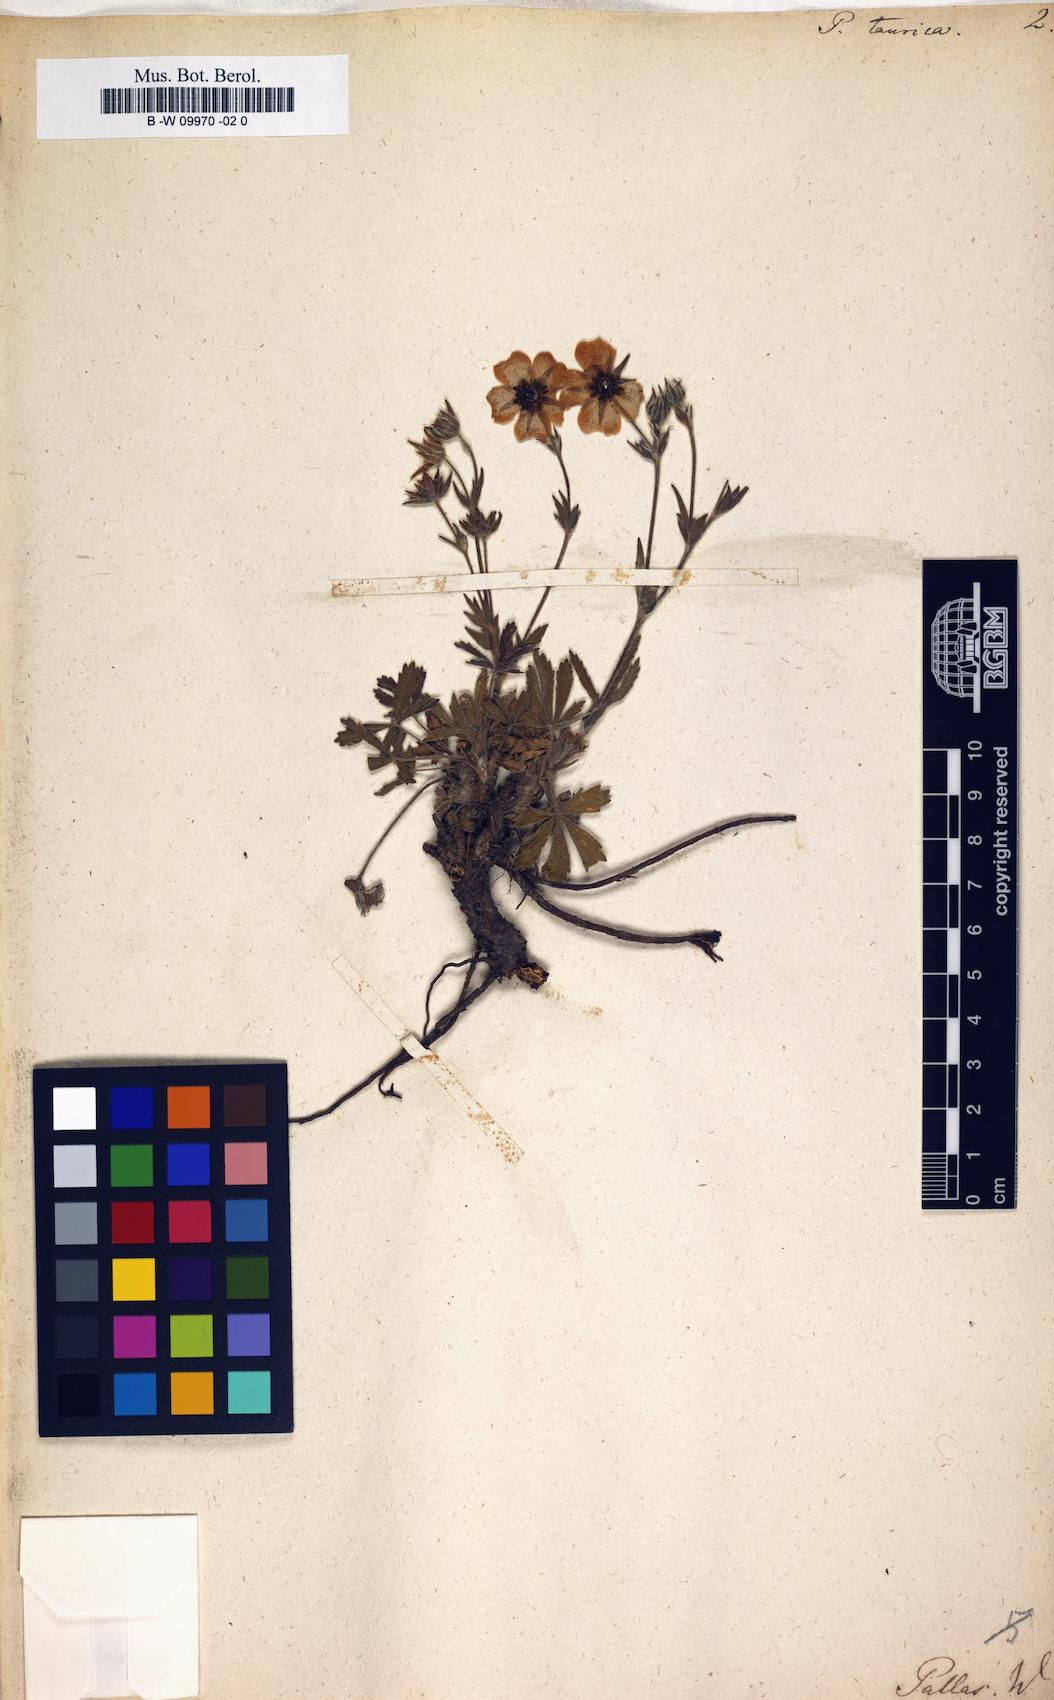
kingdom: Plantae
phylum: Tracheophyta
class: Magnoliopsida
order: Rosales
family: Rosaceae
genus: Potentilla
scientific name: Potentilla taurica
